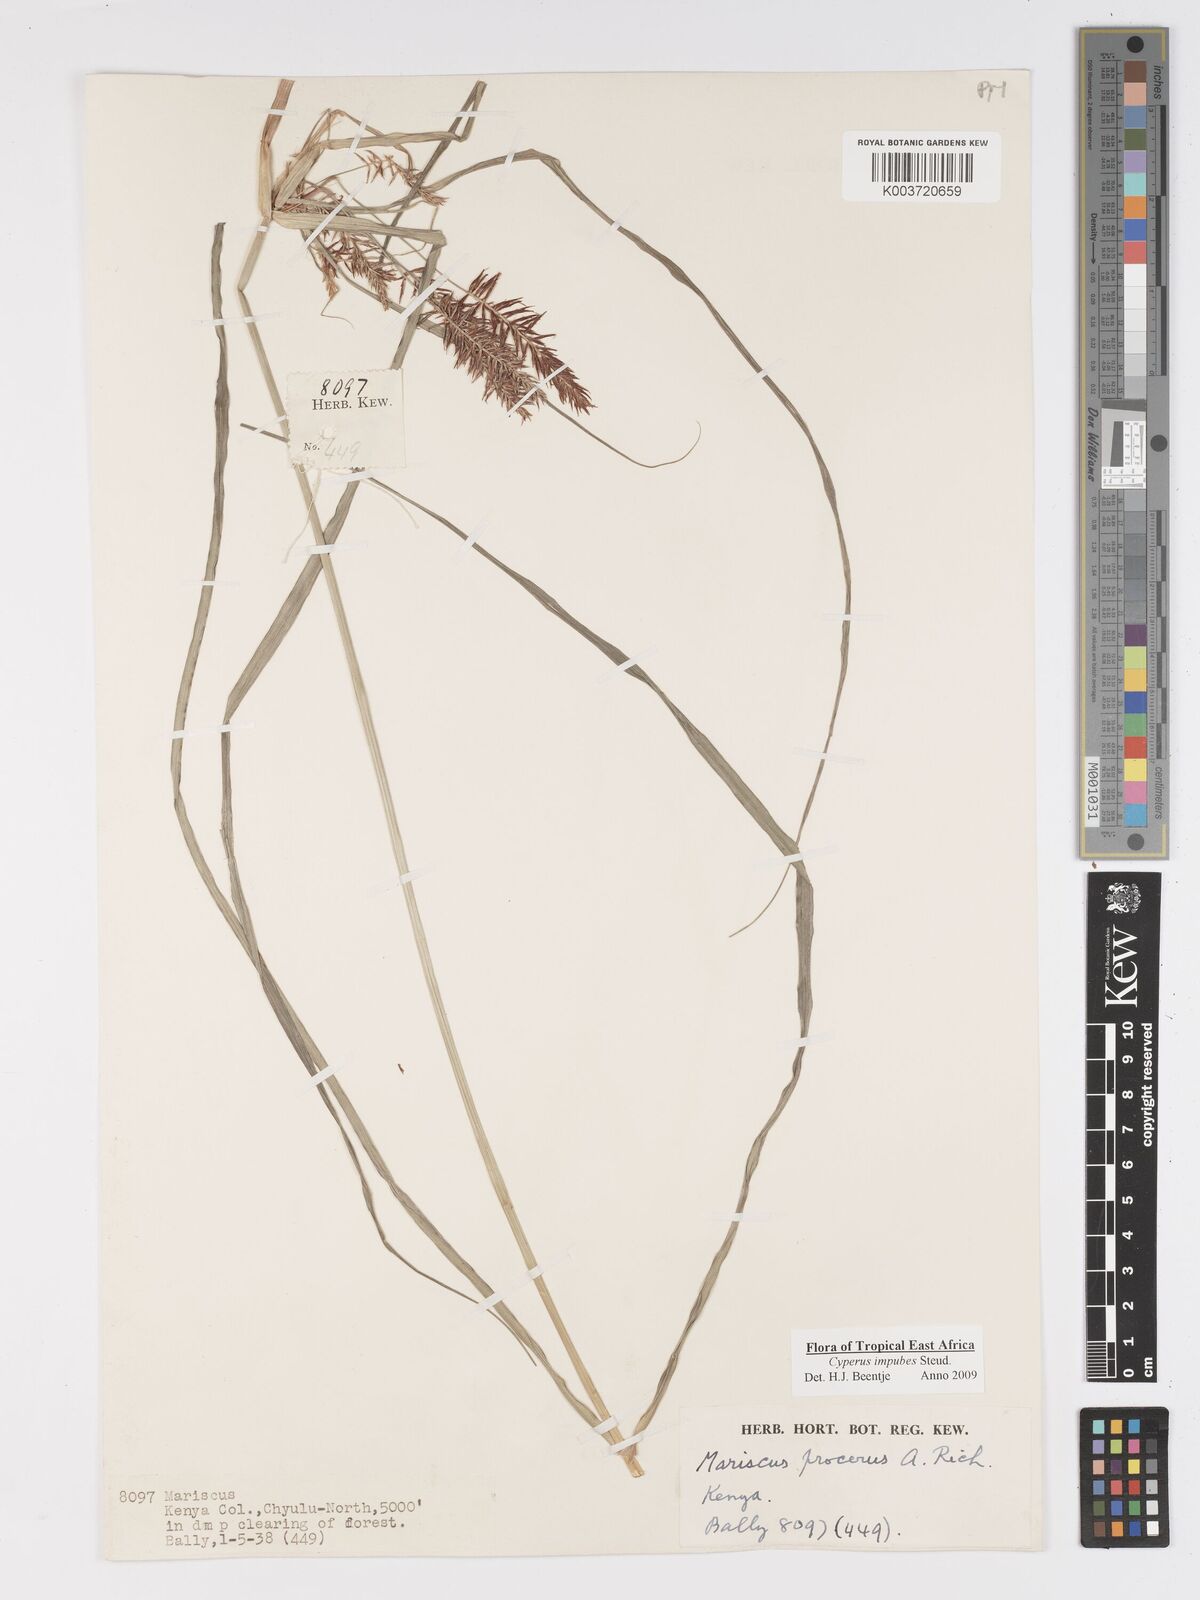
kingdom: Plantae
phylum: Tracheophyta
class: Liliopsida
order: Poales
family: Cyperaceae
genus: Cyperus
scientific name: Cyperus impubes
